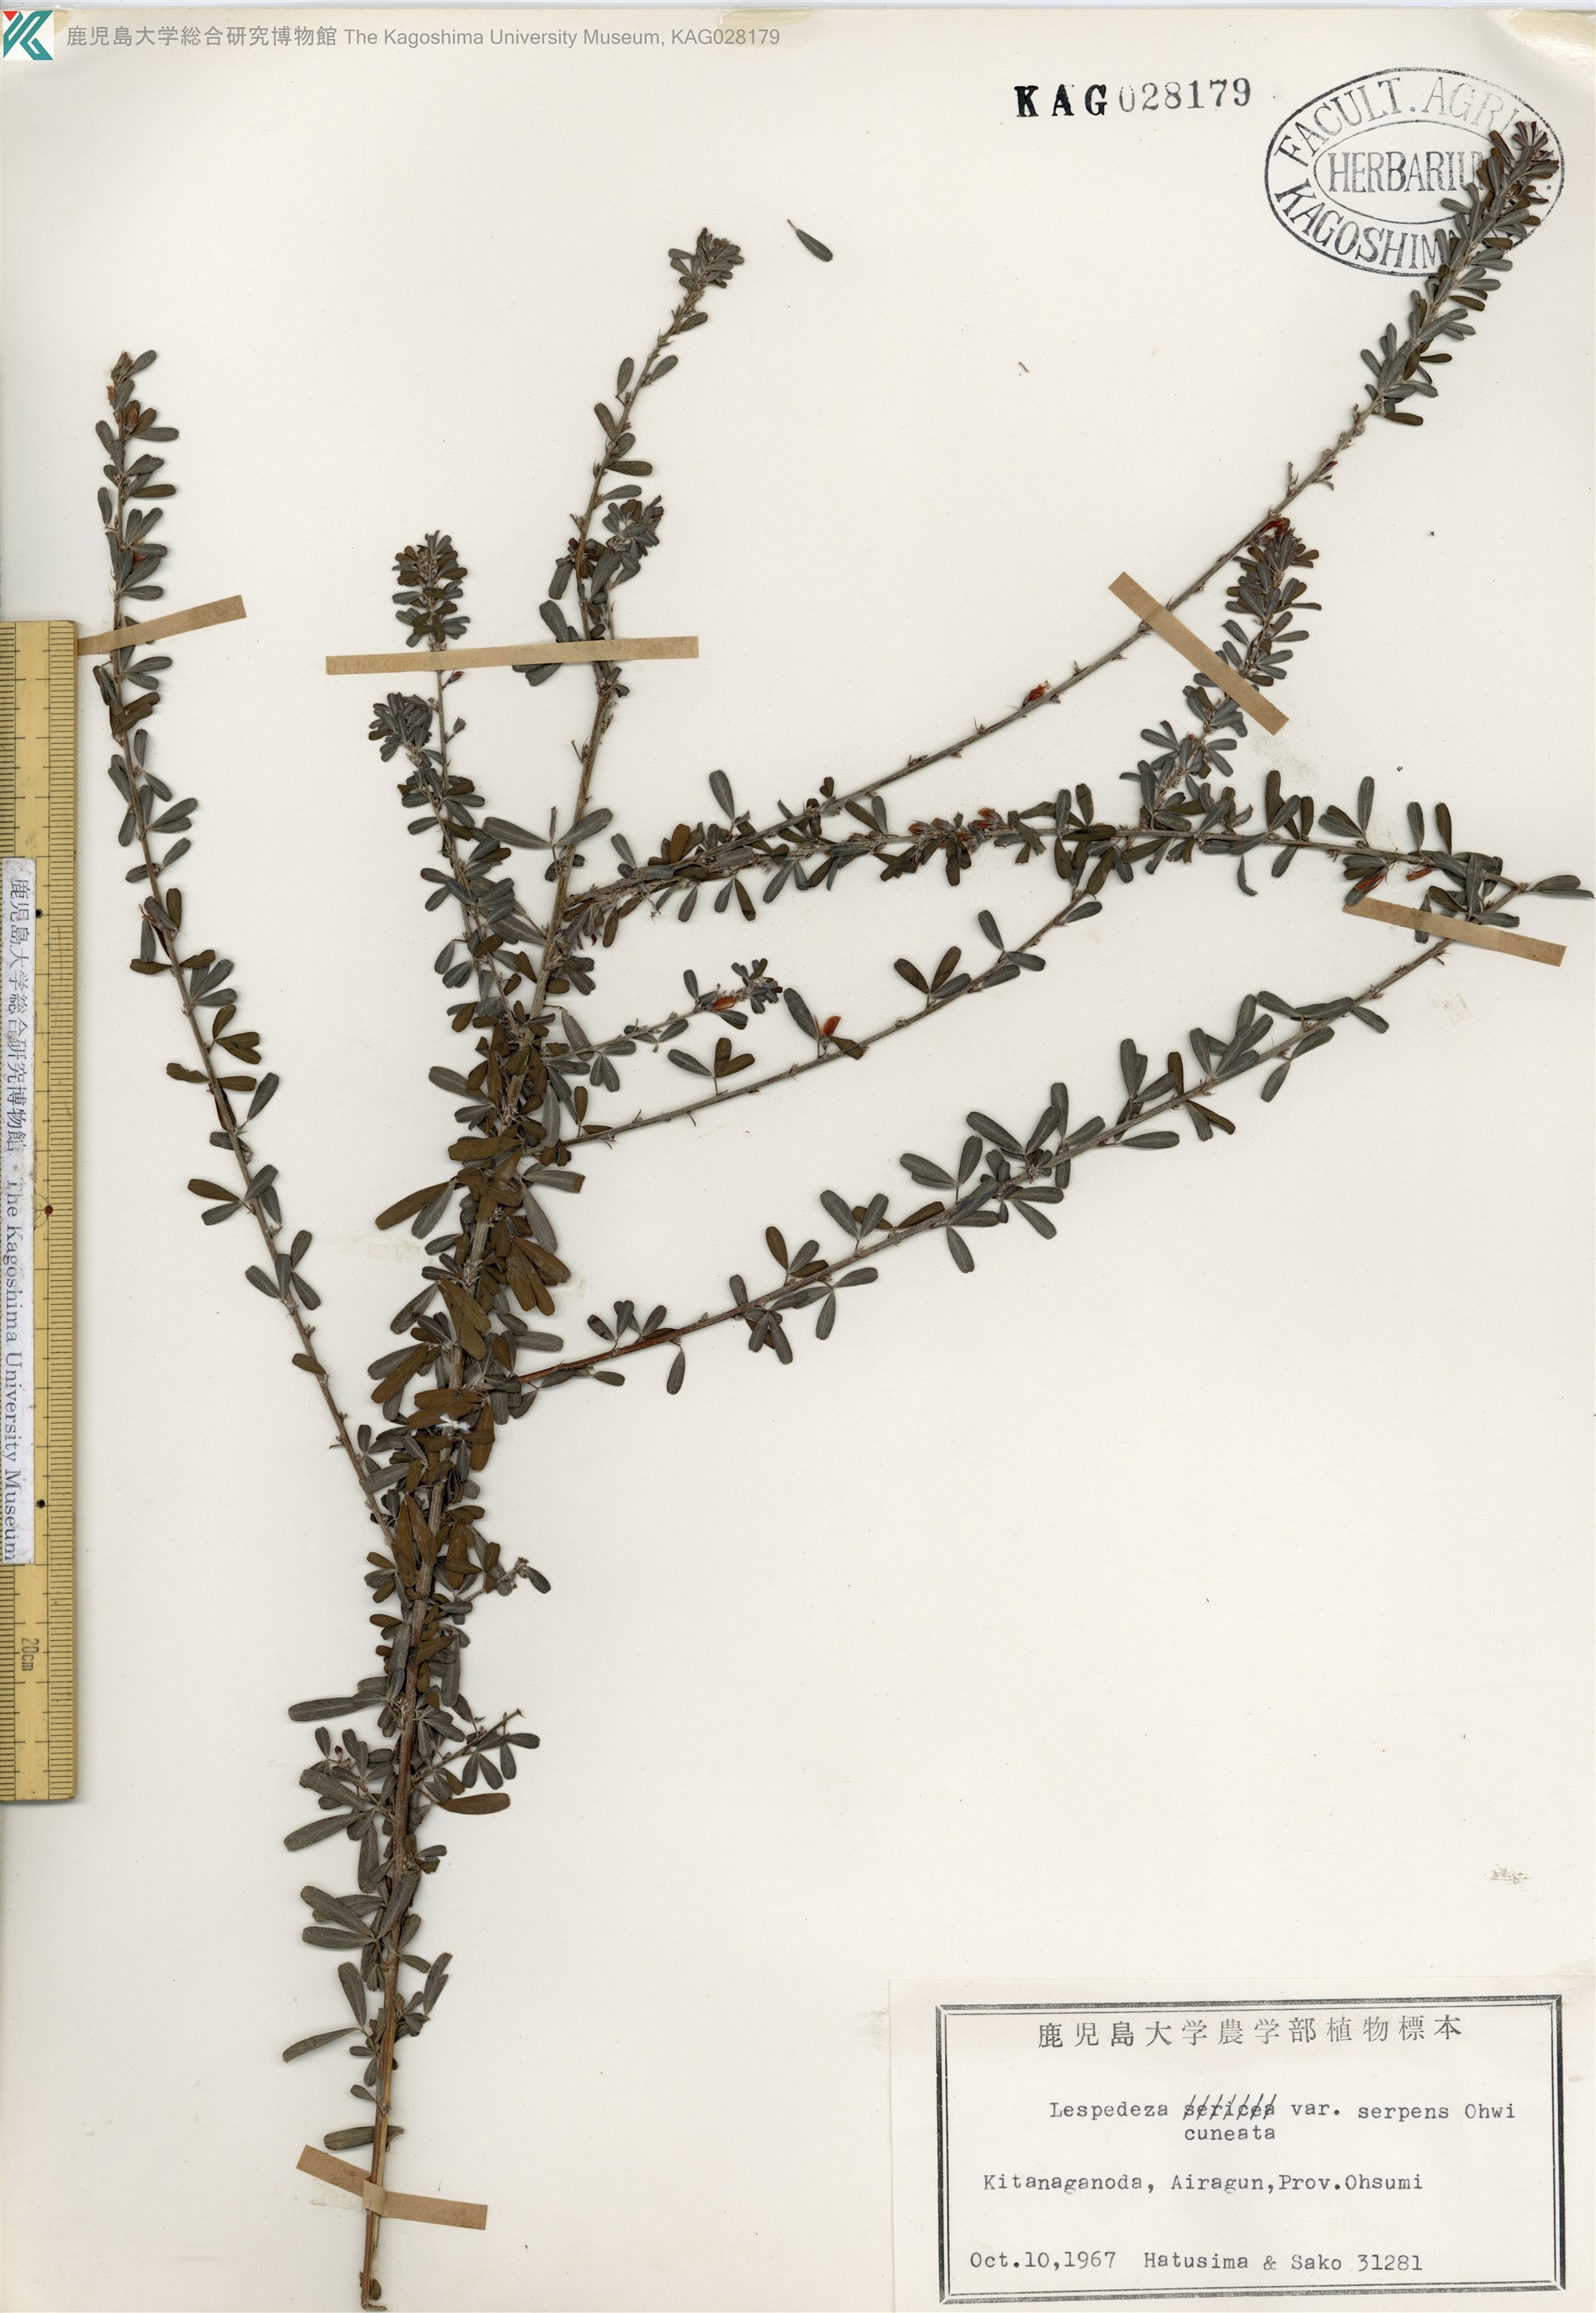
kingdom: Plantae
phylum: Tracheophyta
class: Magnoliopsida
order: Fabales
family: Fabaceae
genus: Lespedeza
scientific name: Lespedeza cuneata
